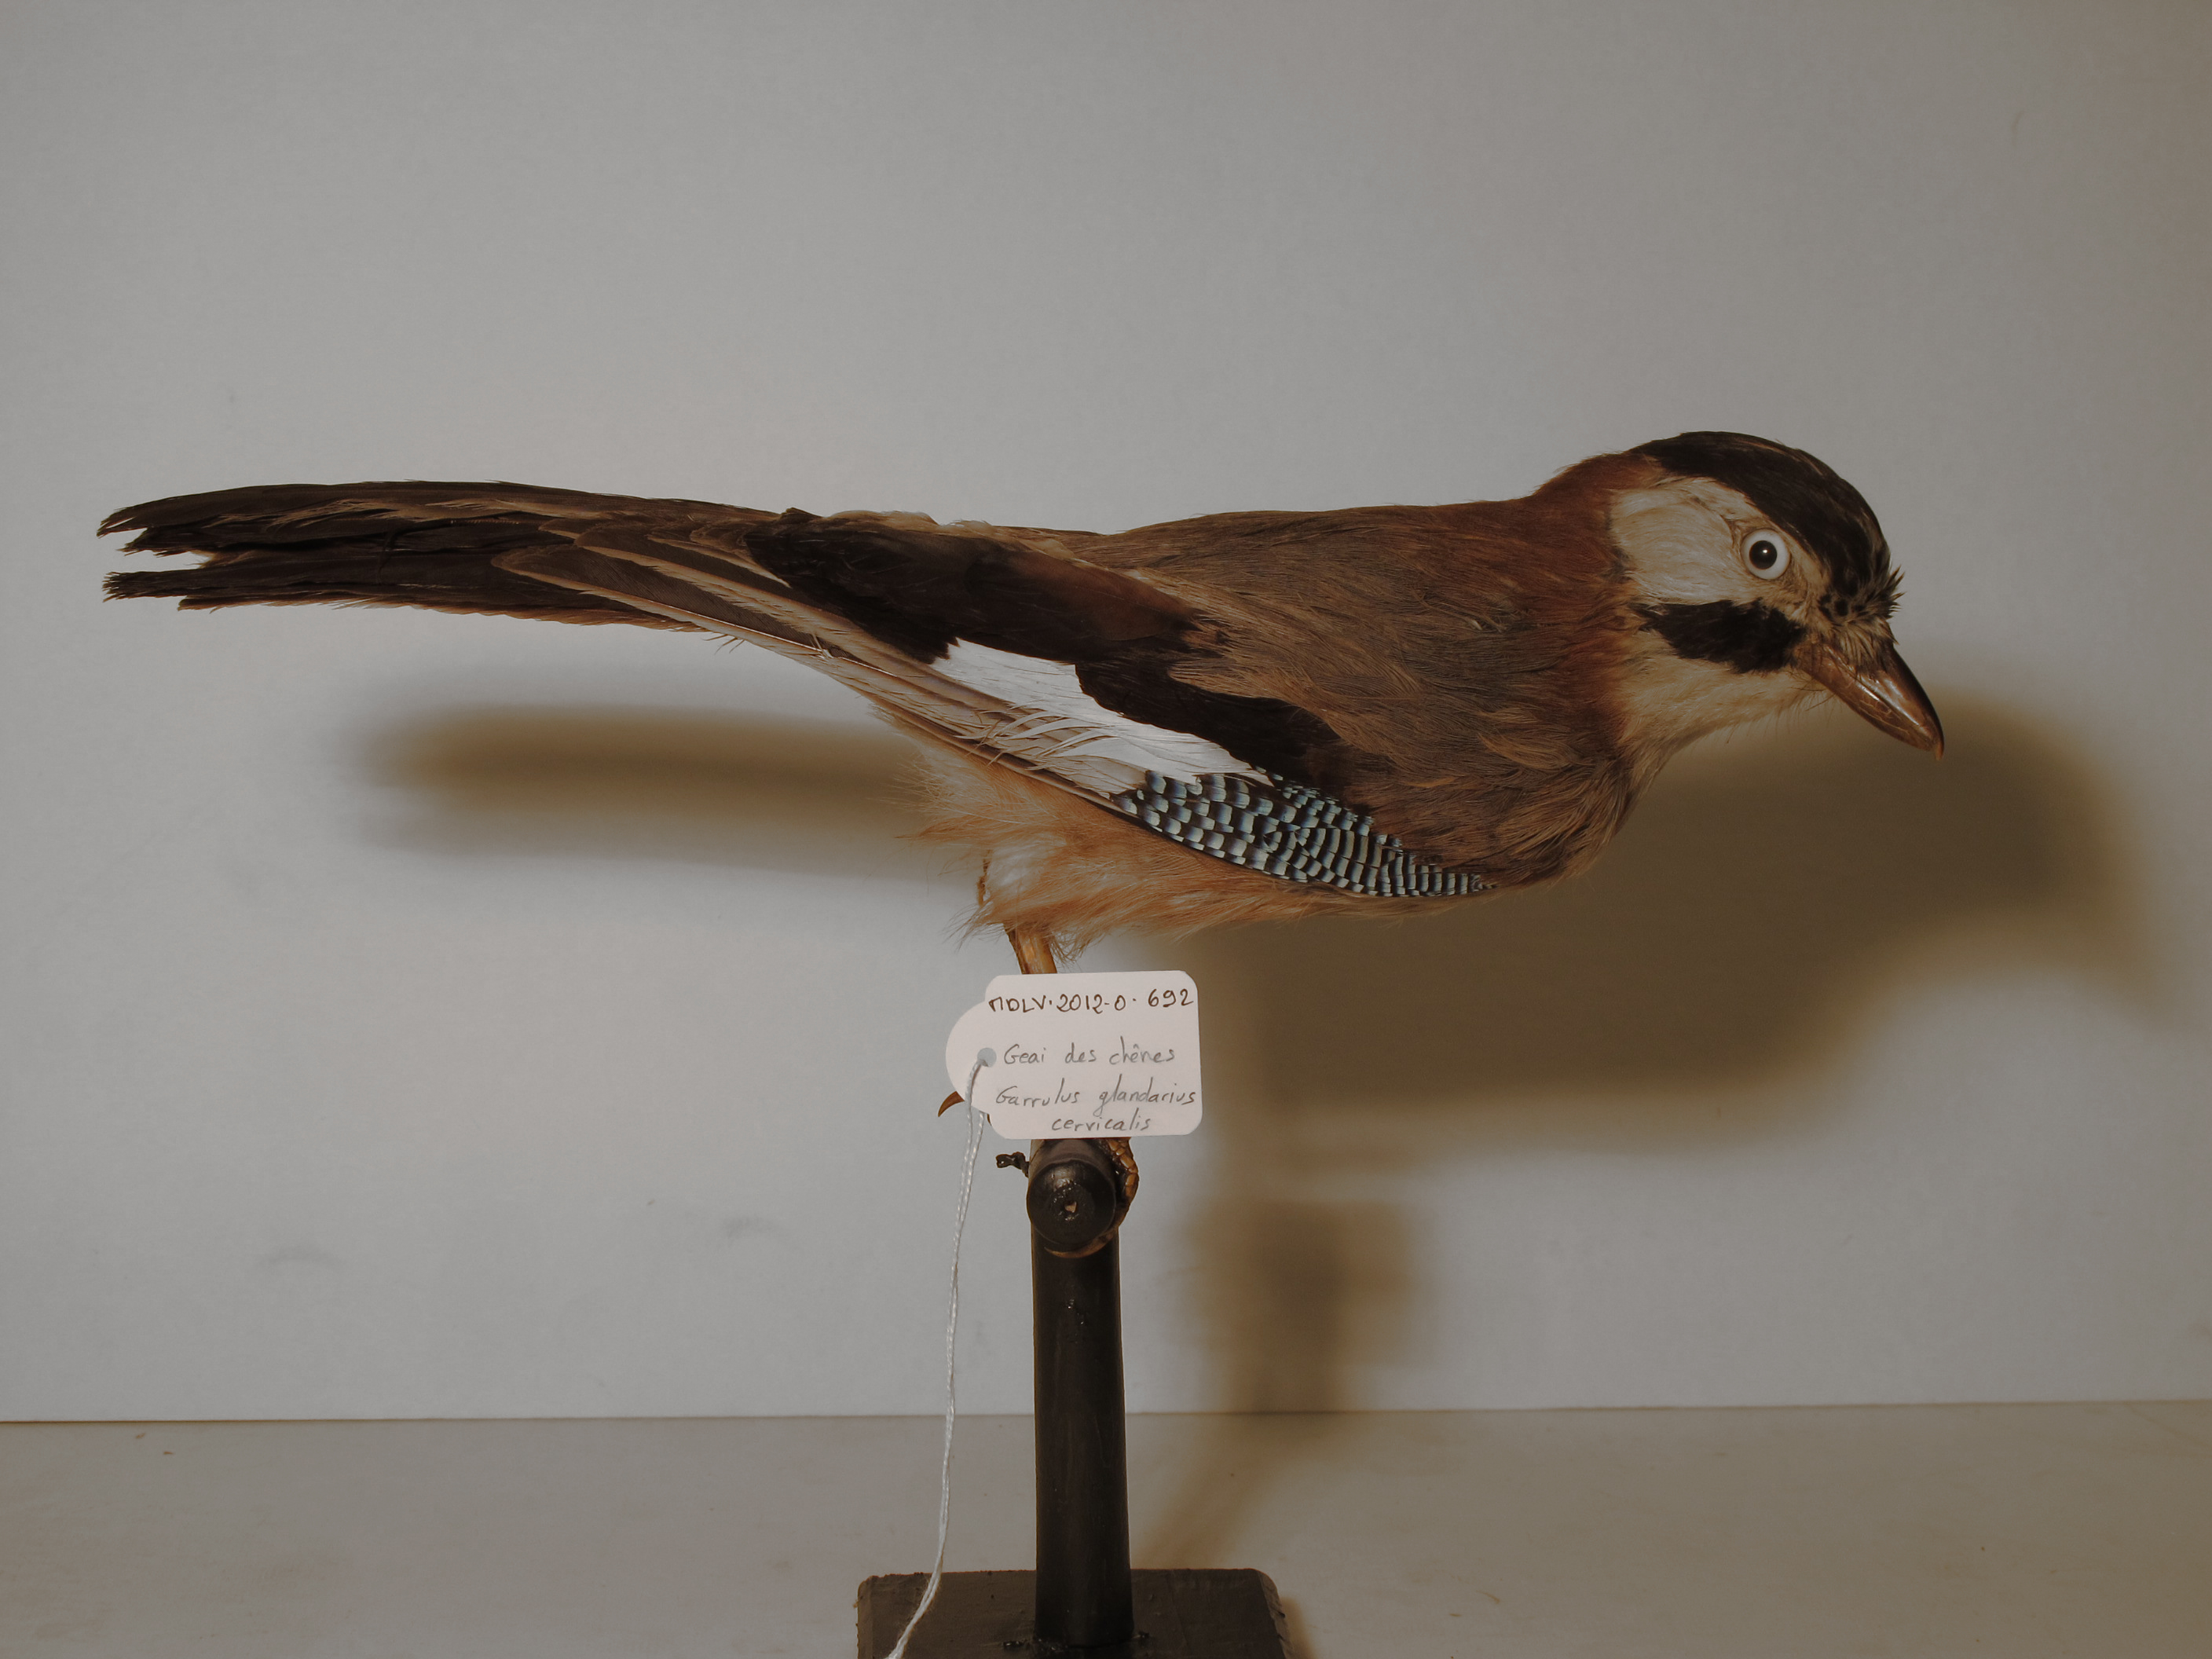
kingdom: Animalia
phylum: Chordata
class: Aves
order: Passeriformes
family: Corvidae
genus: Garrulus
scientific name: Garrulus glandarius
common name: Eurasian Jay
